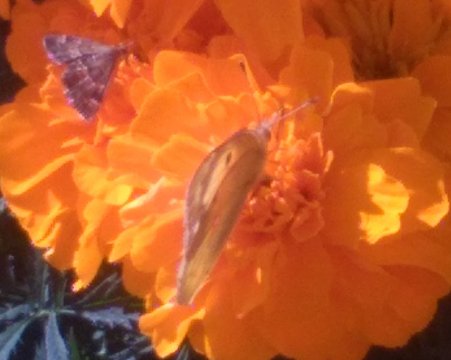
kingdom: Animalia
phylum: Arthropoda
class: Insecta
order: Lepidoptera
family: Pieridae
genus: Colias
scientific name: Colias eurytheme
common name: Orange Sulphur
